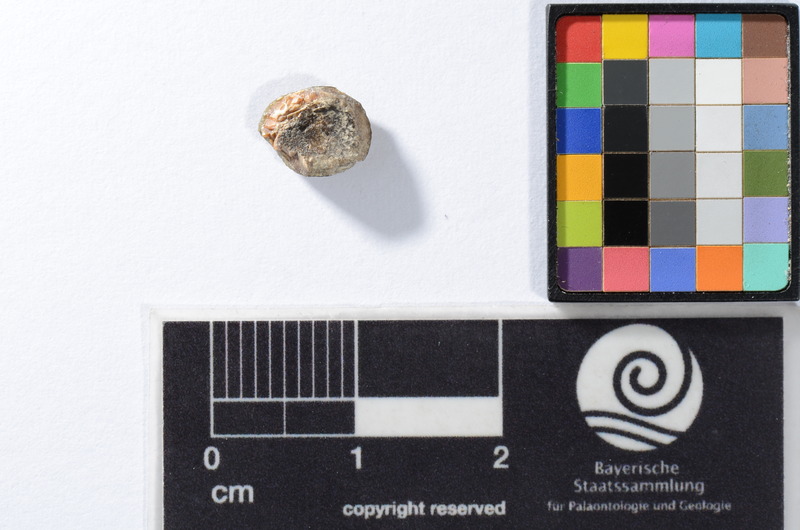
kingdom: Animalia
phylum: Chordata
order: Anguilliformes
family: Phyllodontidae
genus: Phyllodus
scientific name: Phyllodus
